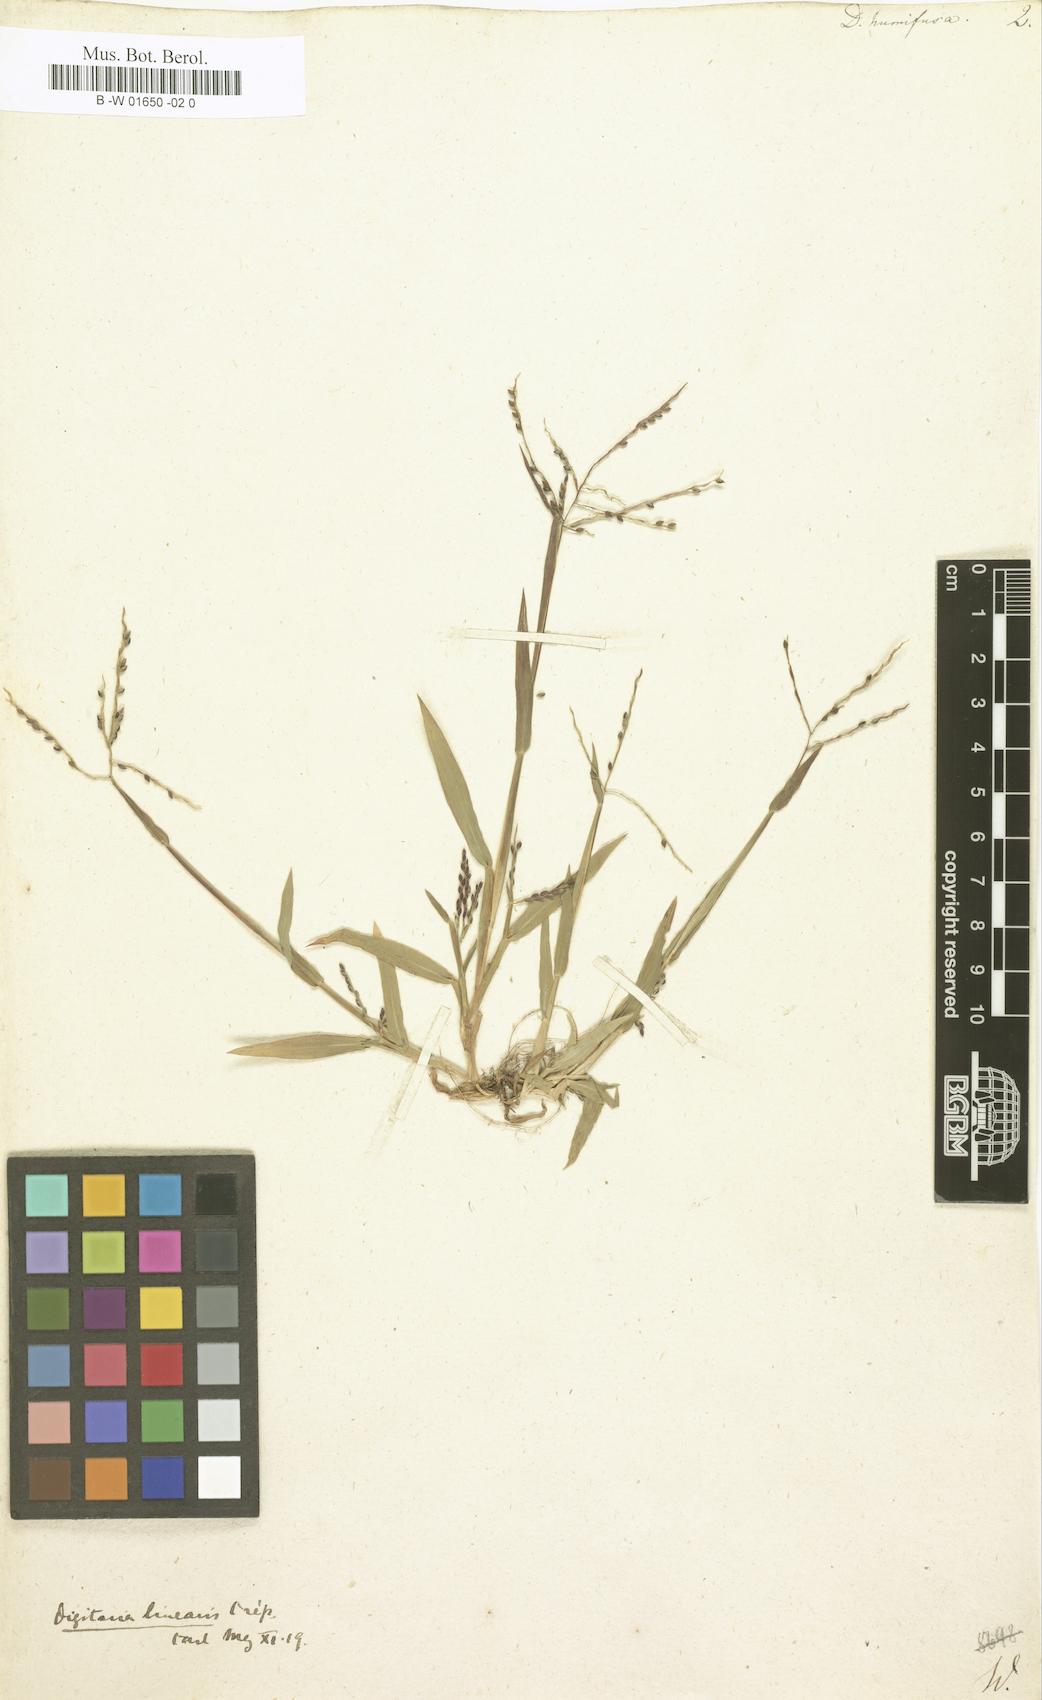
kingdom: Plantae
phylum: Tracheophyta
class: Liliopsida
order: Poales
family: Poaceae
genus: Digitaria
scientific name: Digitaria ischaemum
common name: Smooth crabgrass
